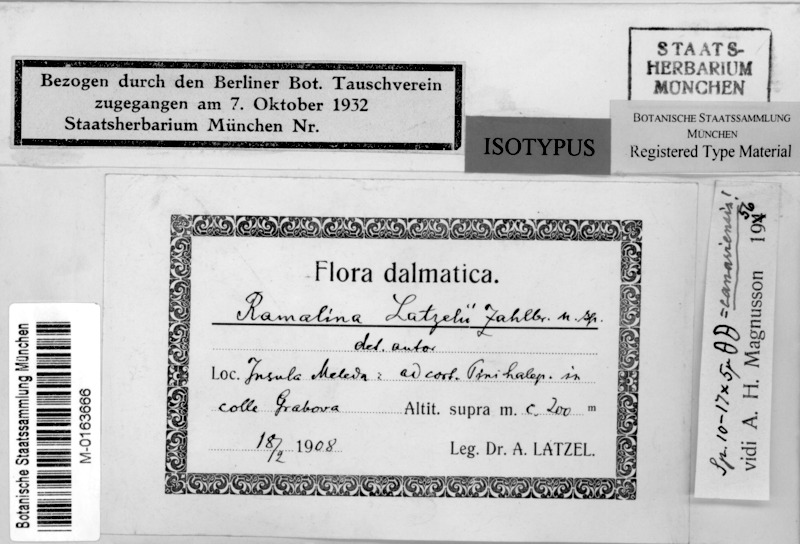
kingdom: Fungi
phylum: Ascomycota
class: Lecanoromycetes
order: Lecanorales
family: Ramalinaceae
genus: Ramalina
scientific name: Ramalina canariensis
